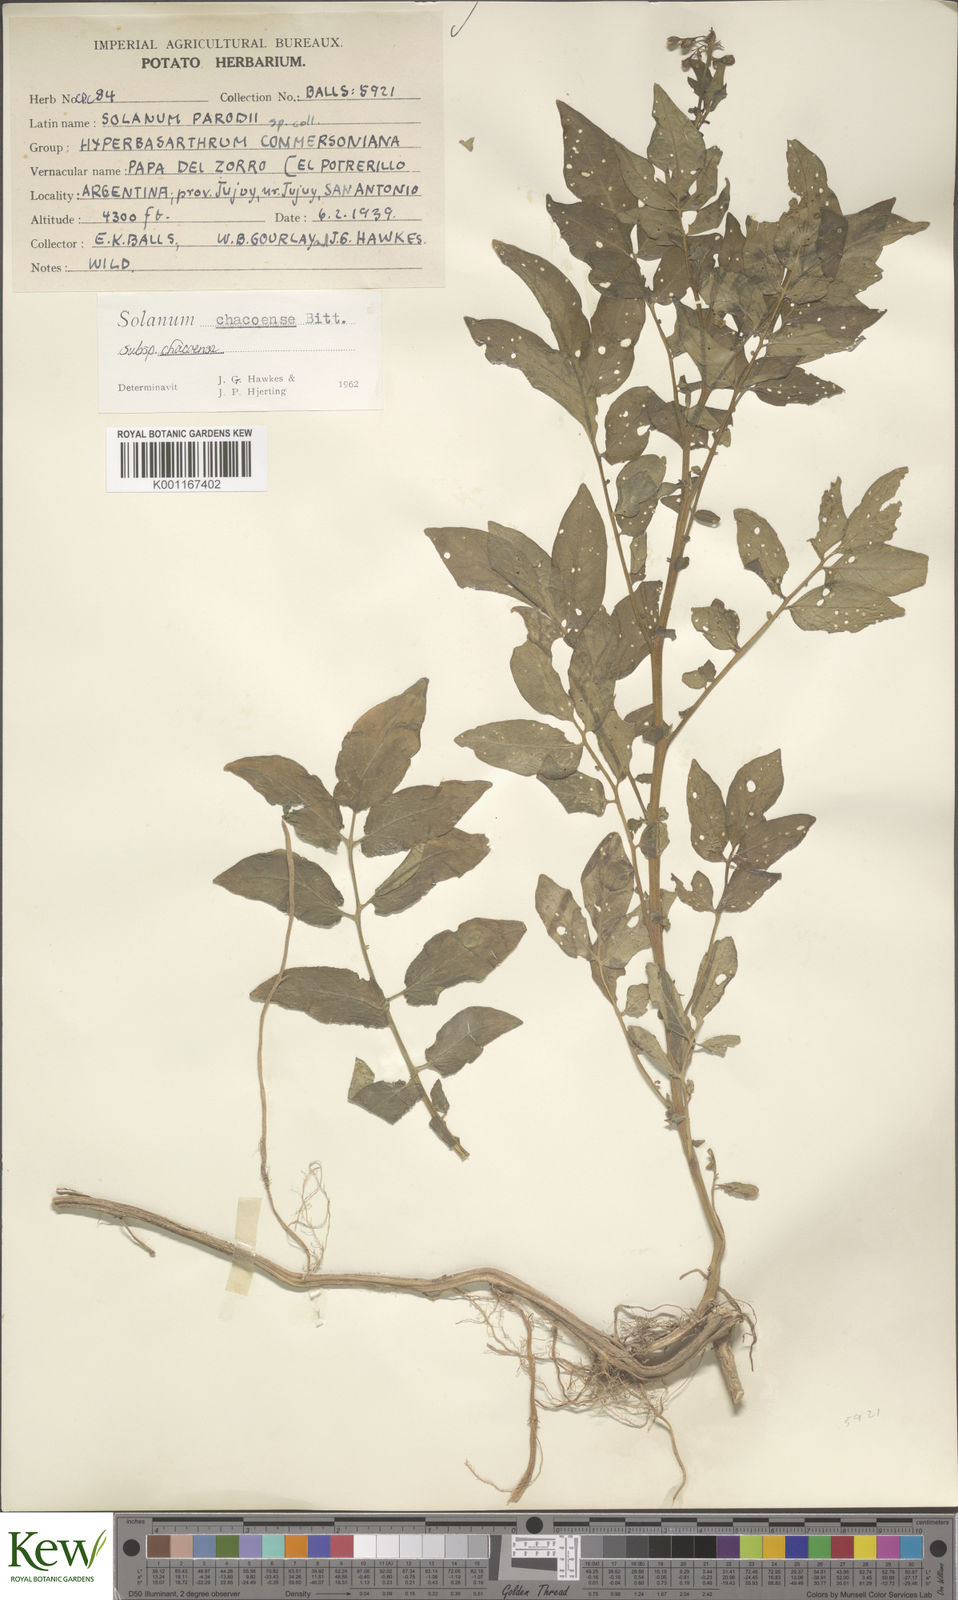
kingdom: Plantae
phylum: Tracheophyta
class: Magnoliopsida
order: Solanales
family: Solanaceae
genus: Solanum
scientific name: Solanum chacoense
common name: Chaco potato
